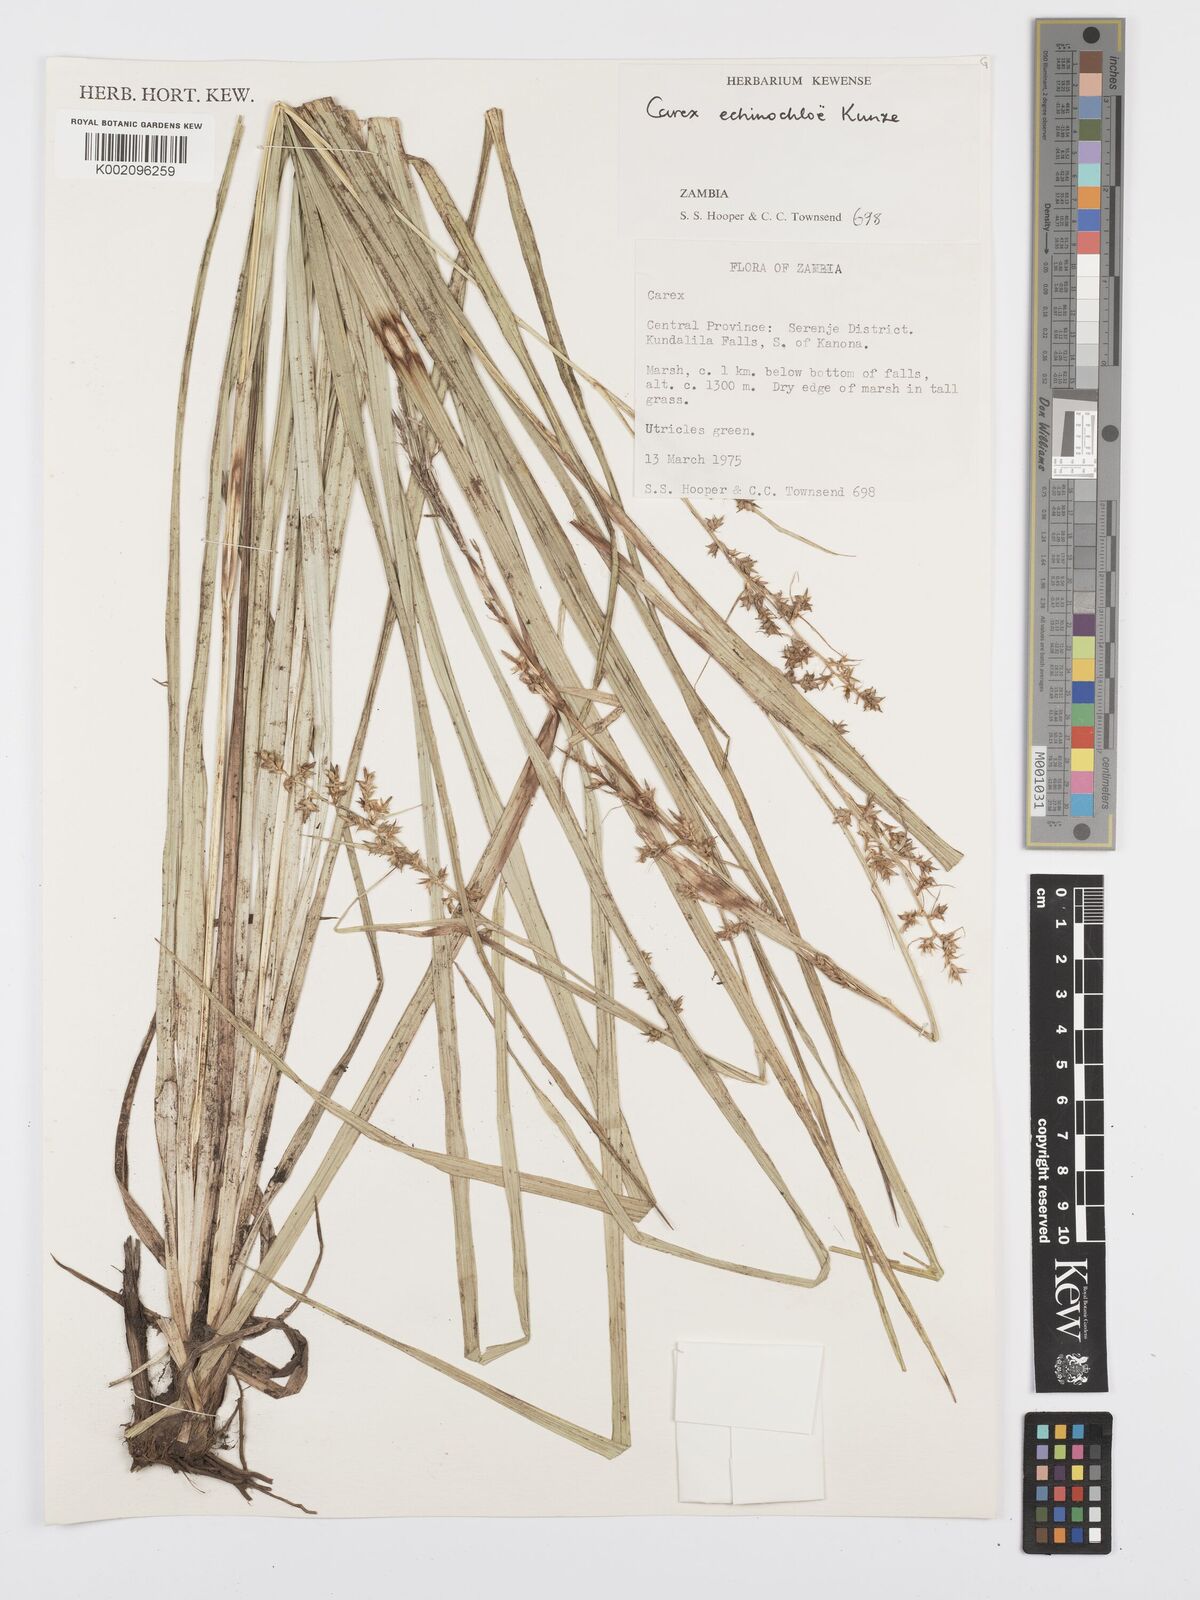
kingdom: Plantae
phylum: Tracheophyta
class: Liliopsida
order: Poales
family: Cyperaceae
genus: Carex
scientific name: Carex echinochloe
